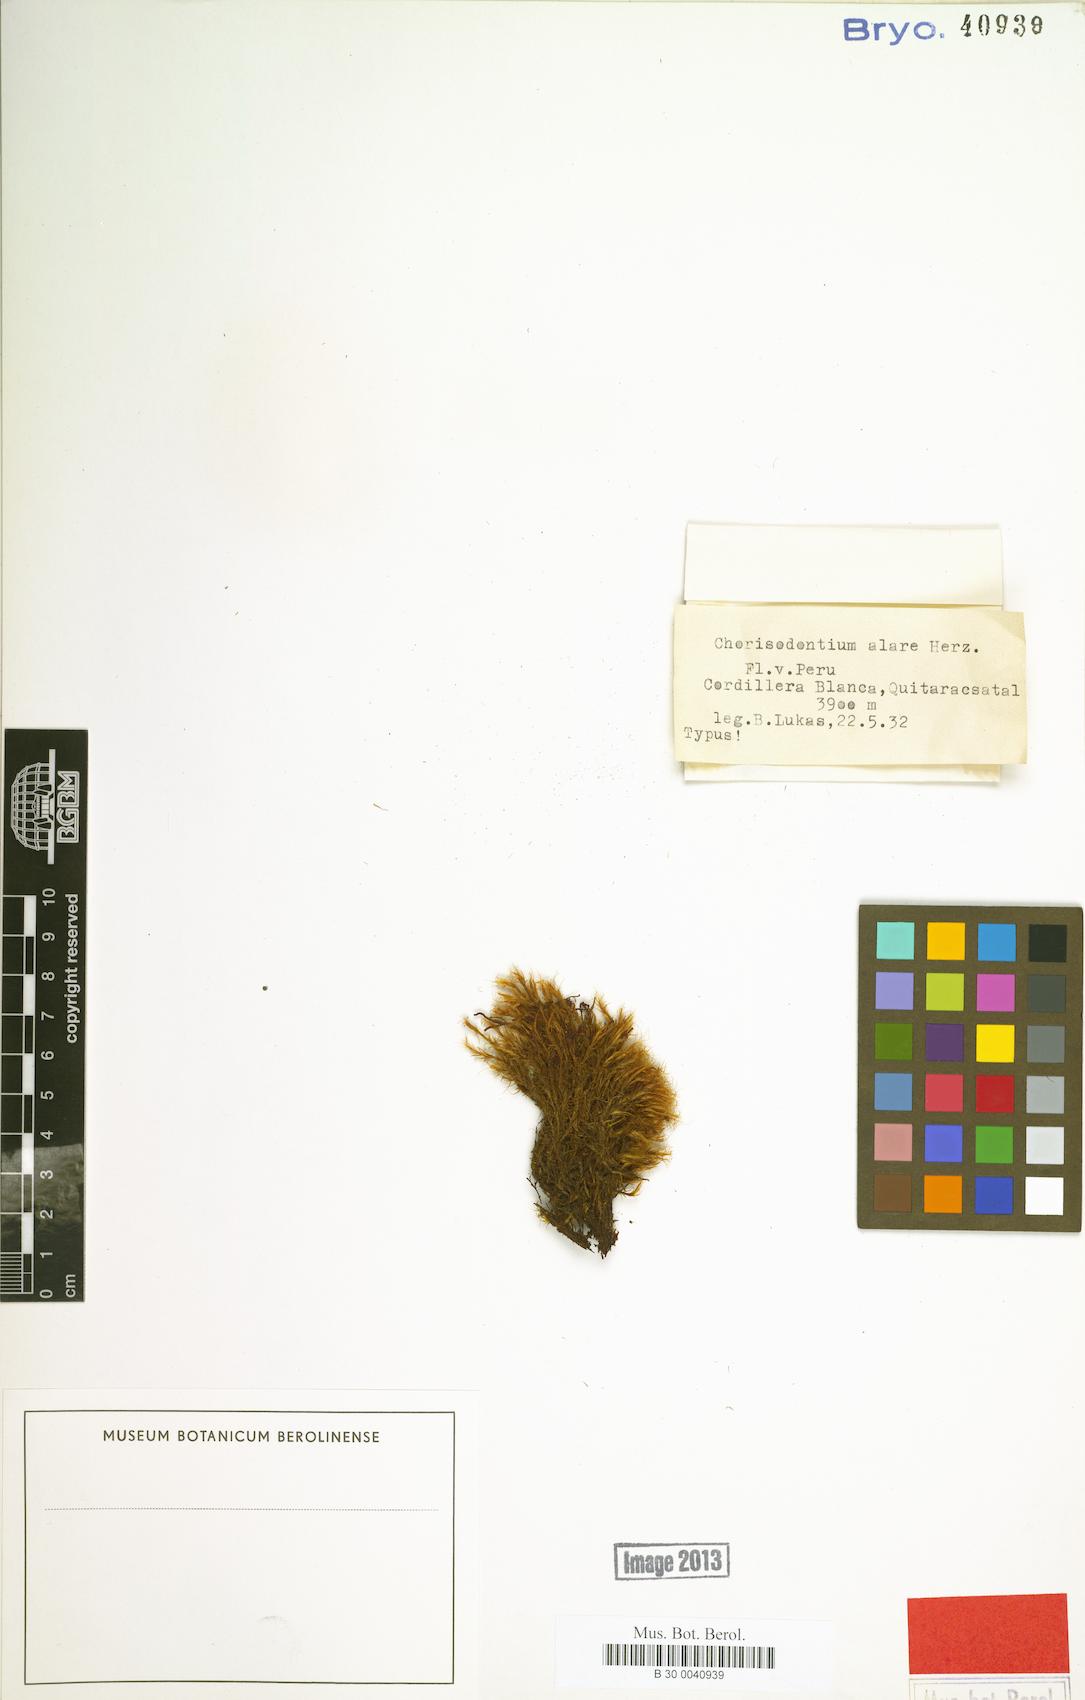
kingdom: Plantae
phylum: Bryophyta
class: Bryopsida
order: Dicranales
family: Dicranaceae
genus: Chorisodontium
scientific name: Chorisodontium
